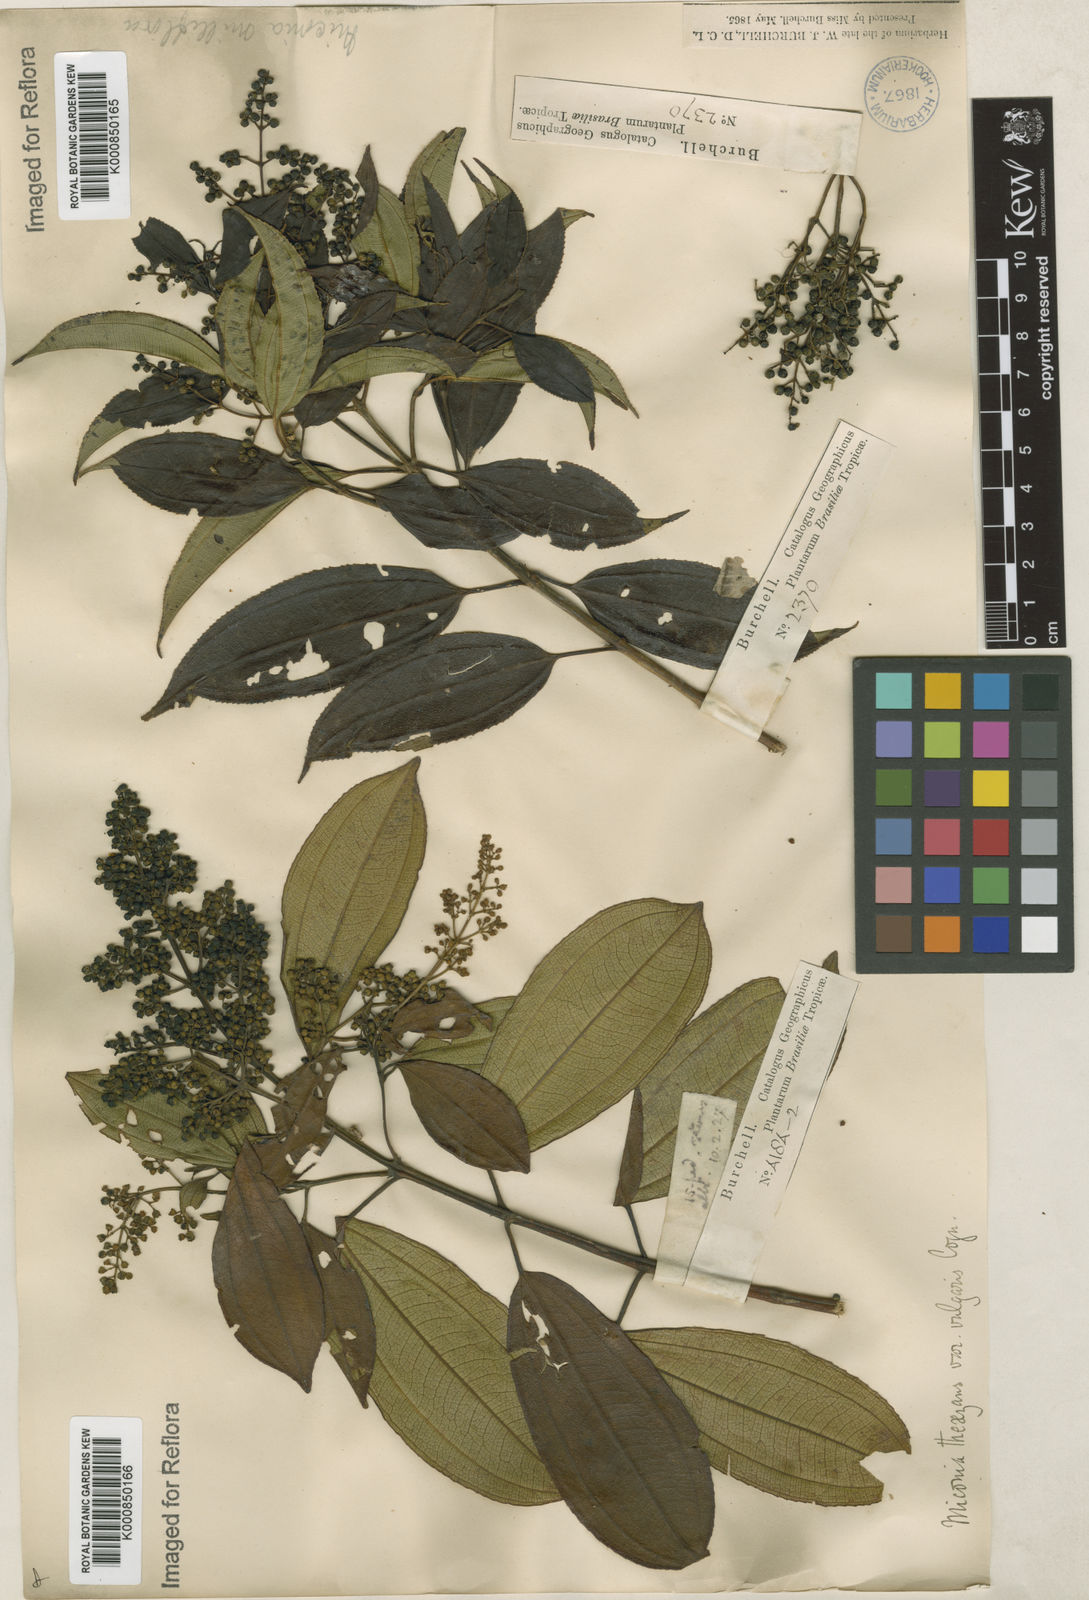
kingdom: Plantae
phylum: Tracheophyta
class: Magnoliopsida
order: Myrtales
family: Melastomataceae
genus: Miconia
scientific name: Miconia
